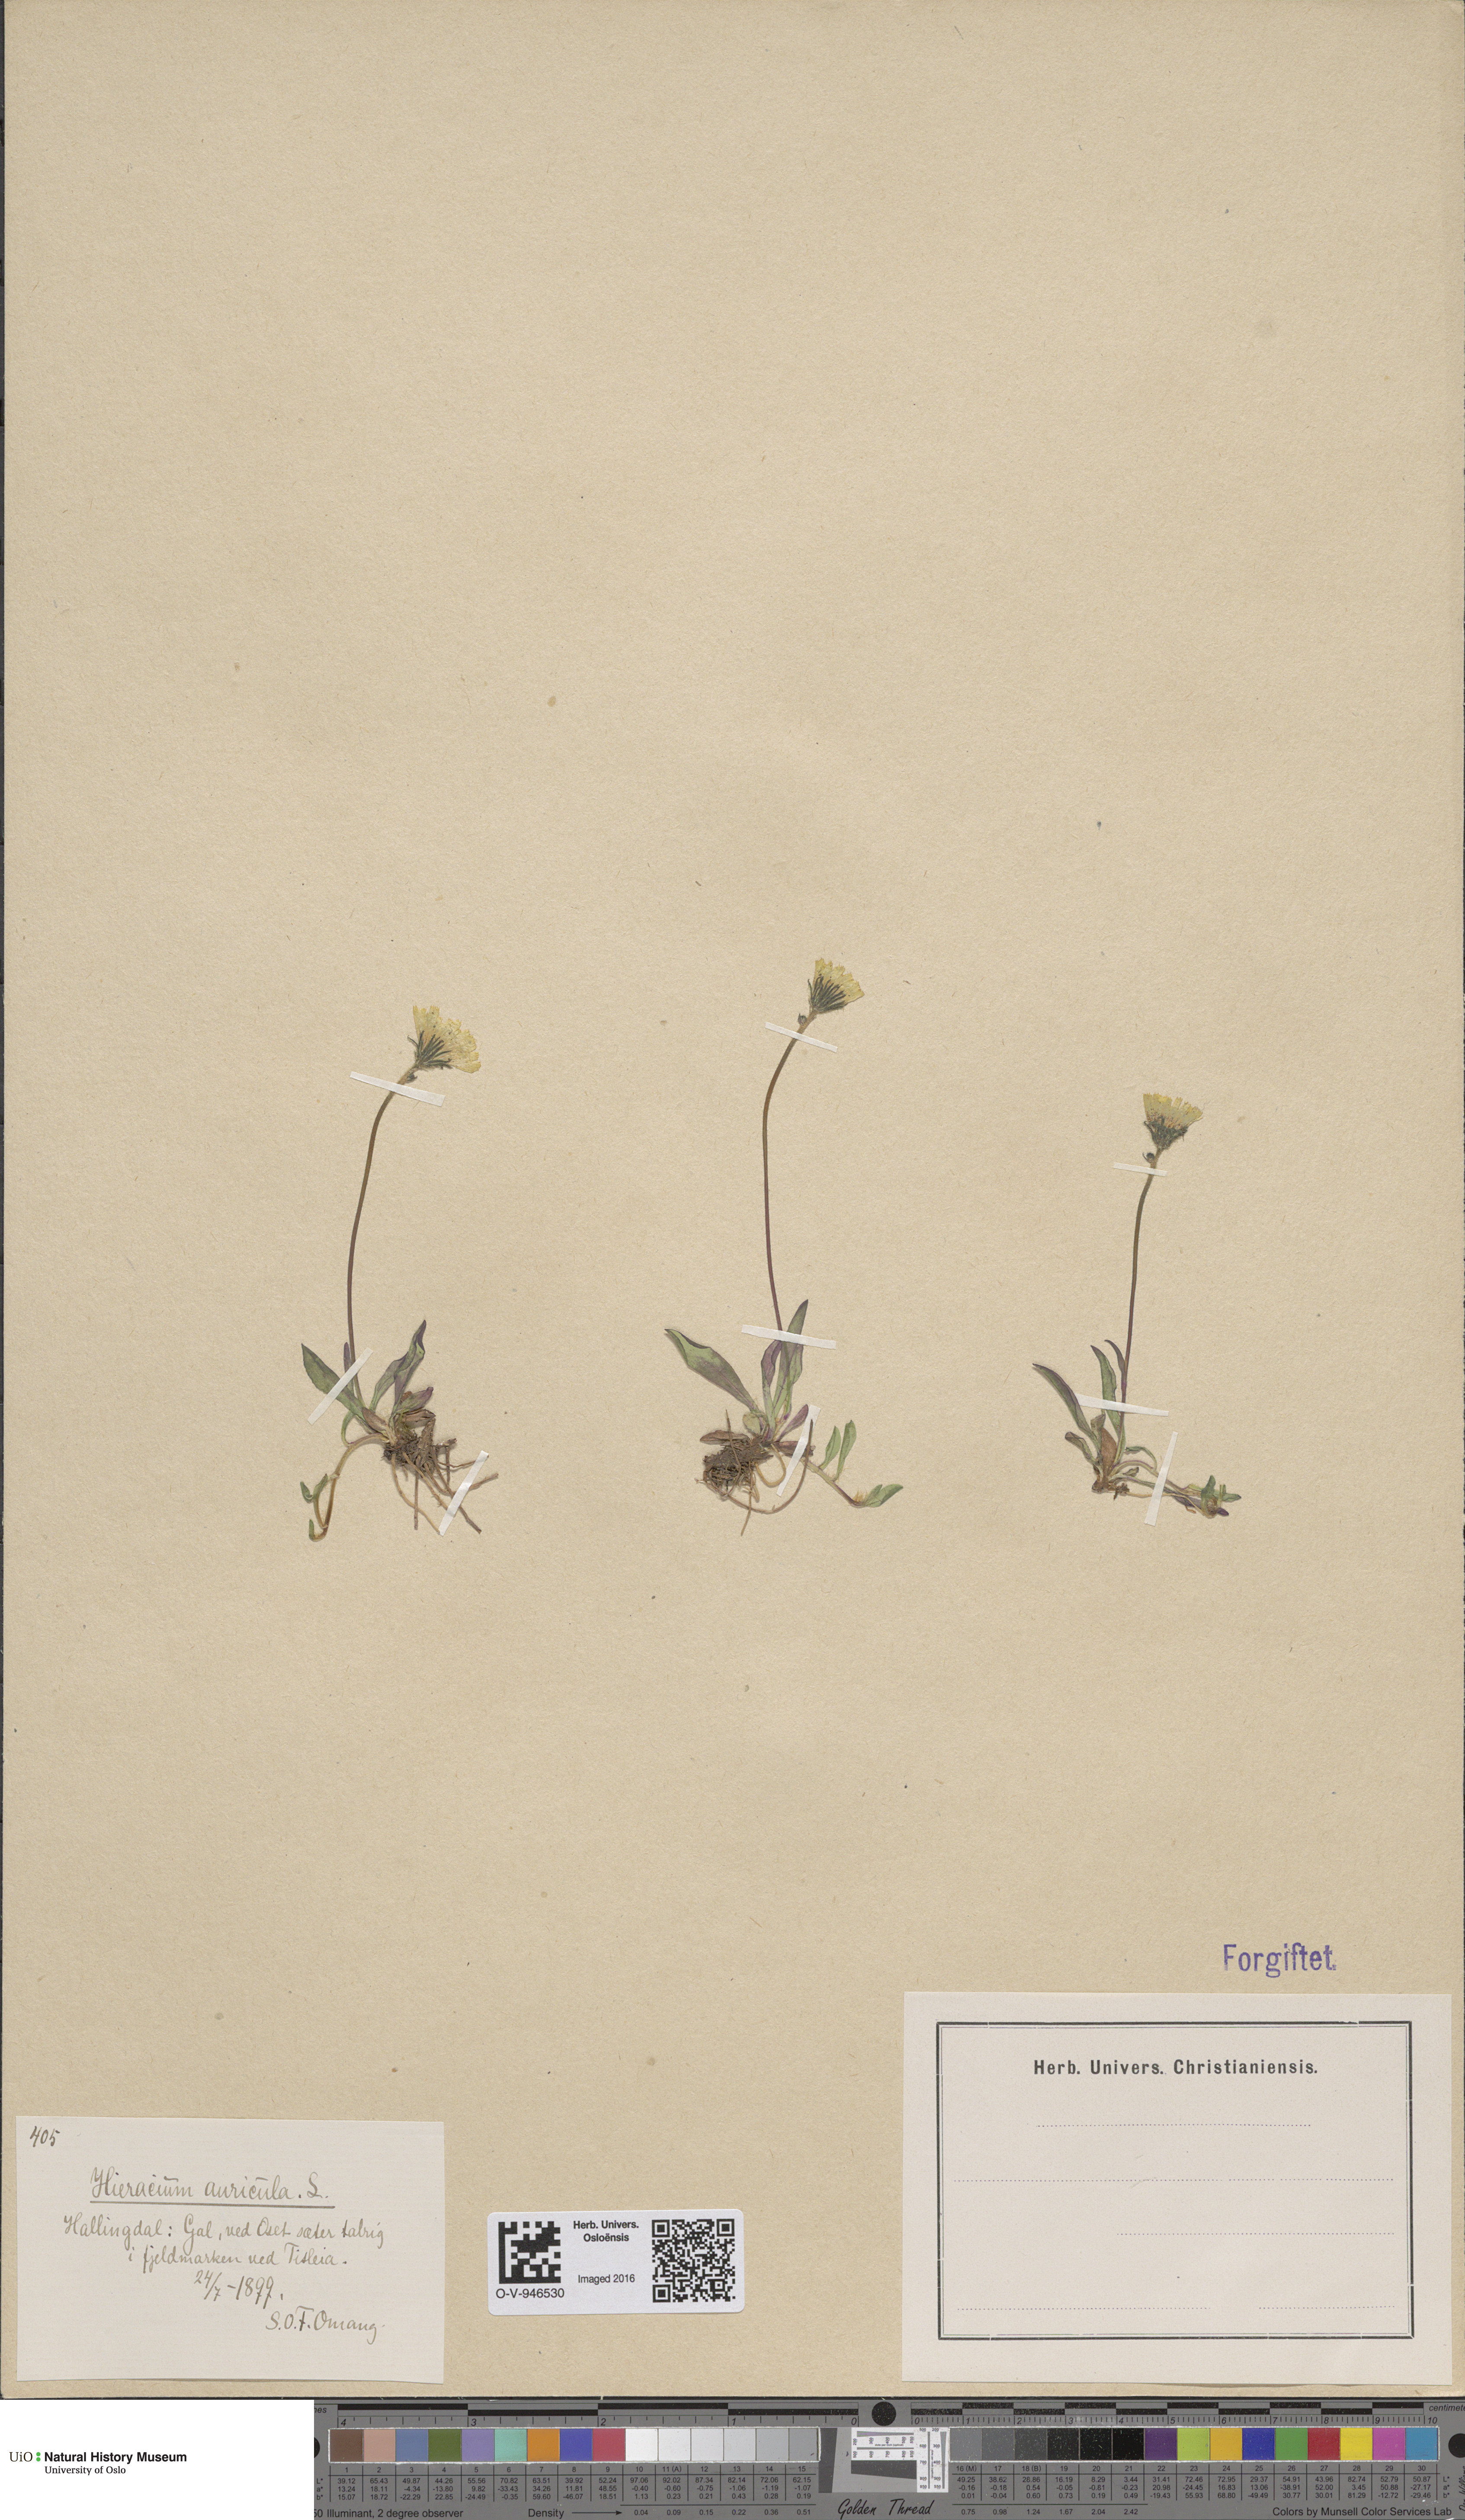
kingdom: Plantae
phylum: Tracheophyta
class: Magnoliopsida
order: Asterales
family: Asteraceae
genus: Pilosella
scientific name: Pilosella lactucella
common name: Glaucous fox-and-cubs
